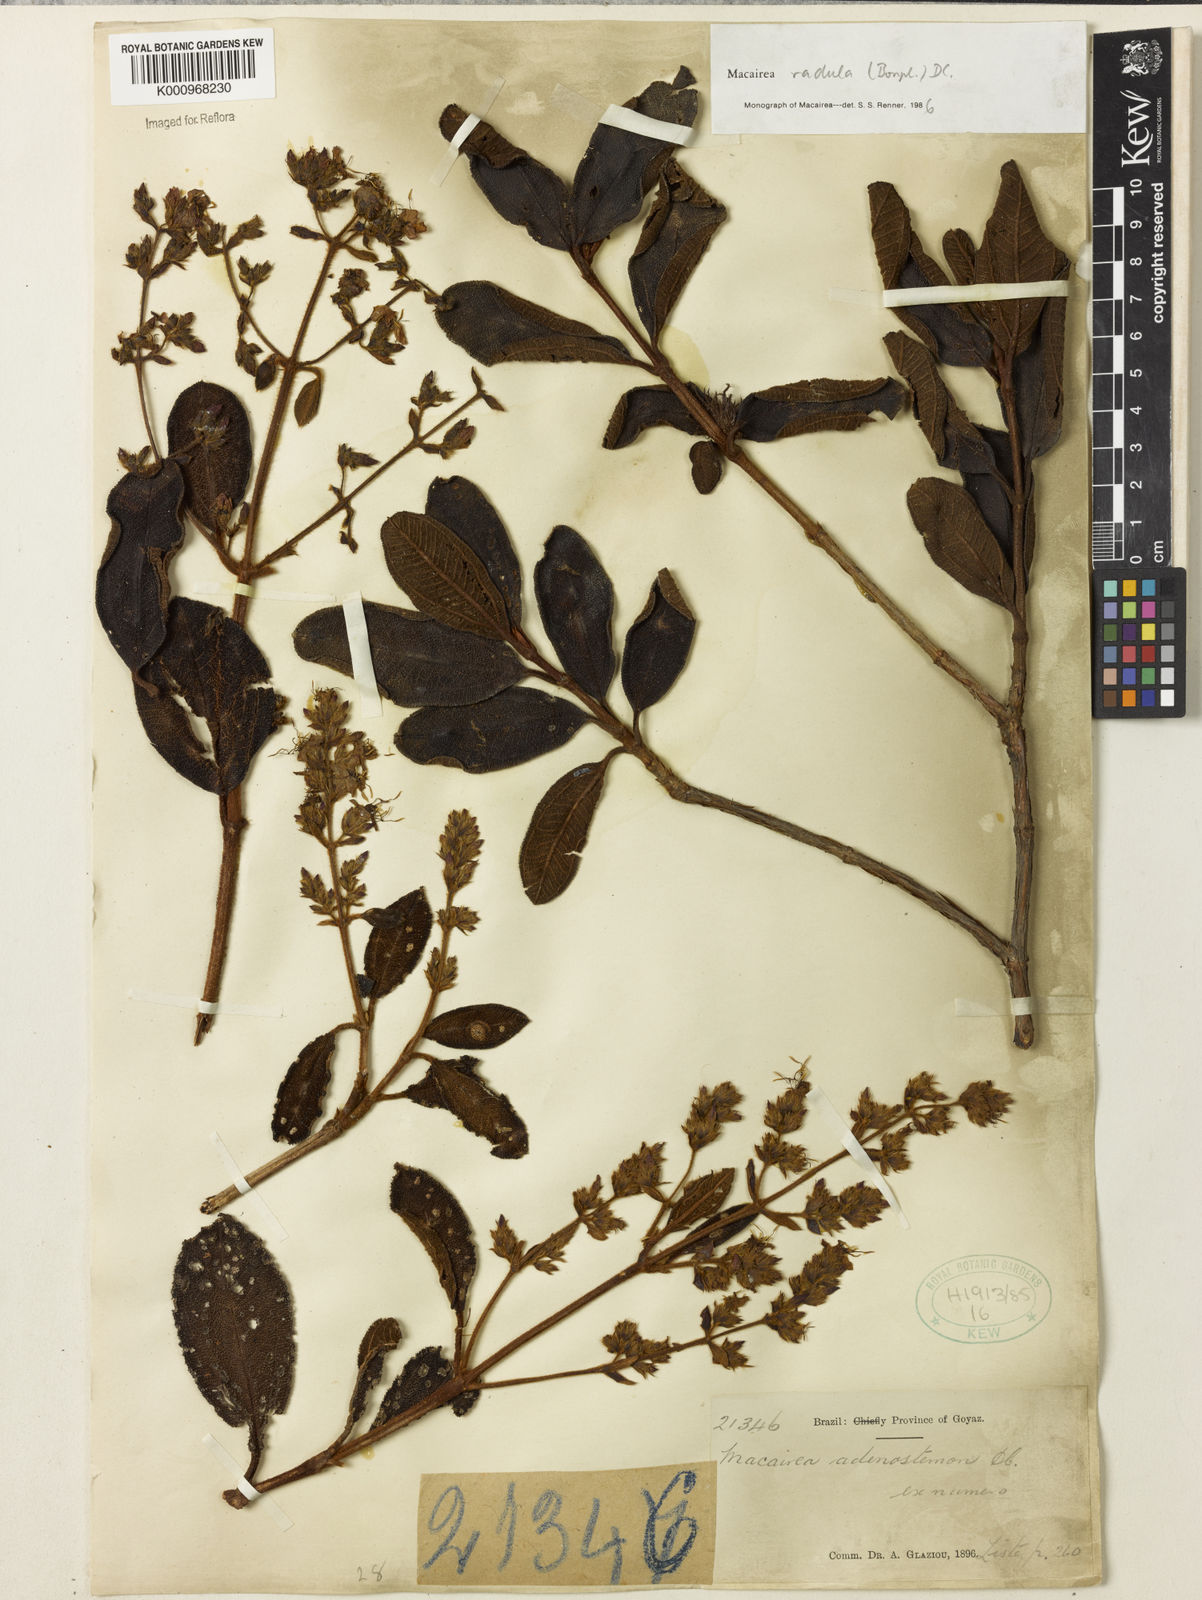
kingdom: Plantae
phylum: Tracheophyta
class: Magnoliopsida
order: Myrtales
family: Melastomataceae
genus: Macairea
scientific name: Macairea radula
